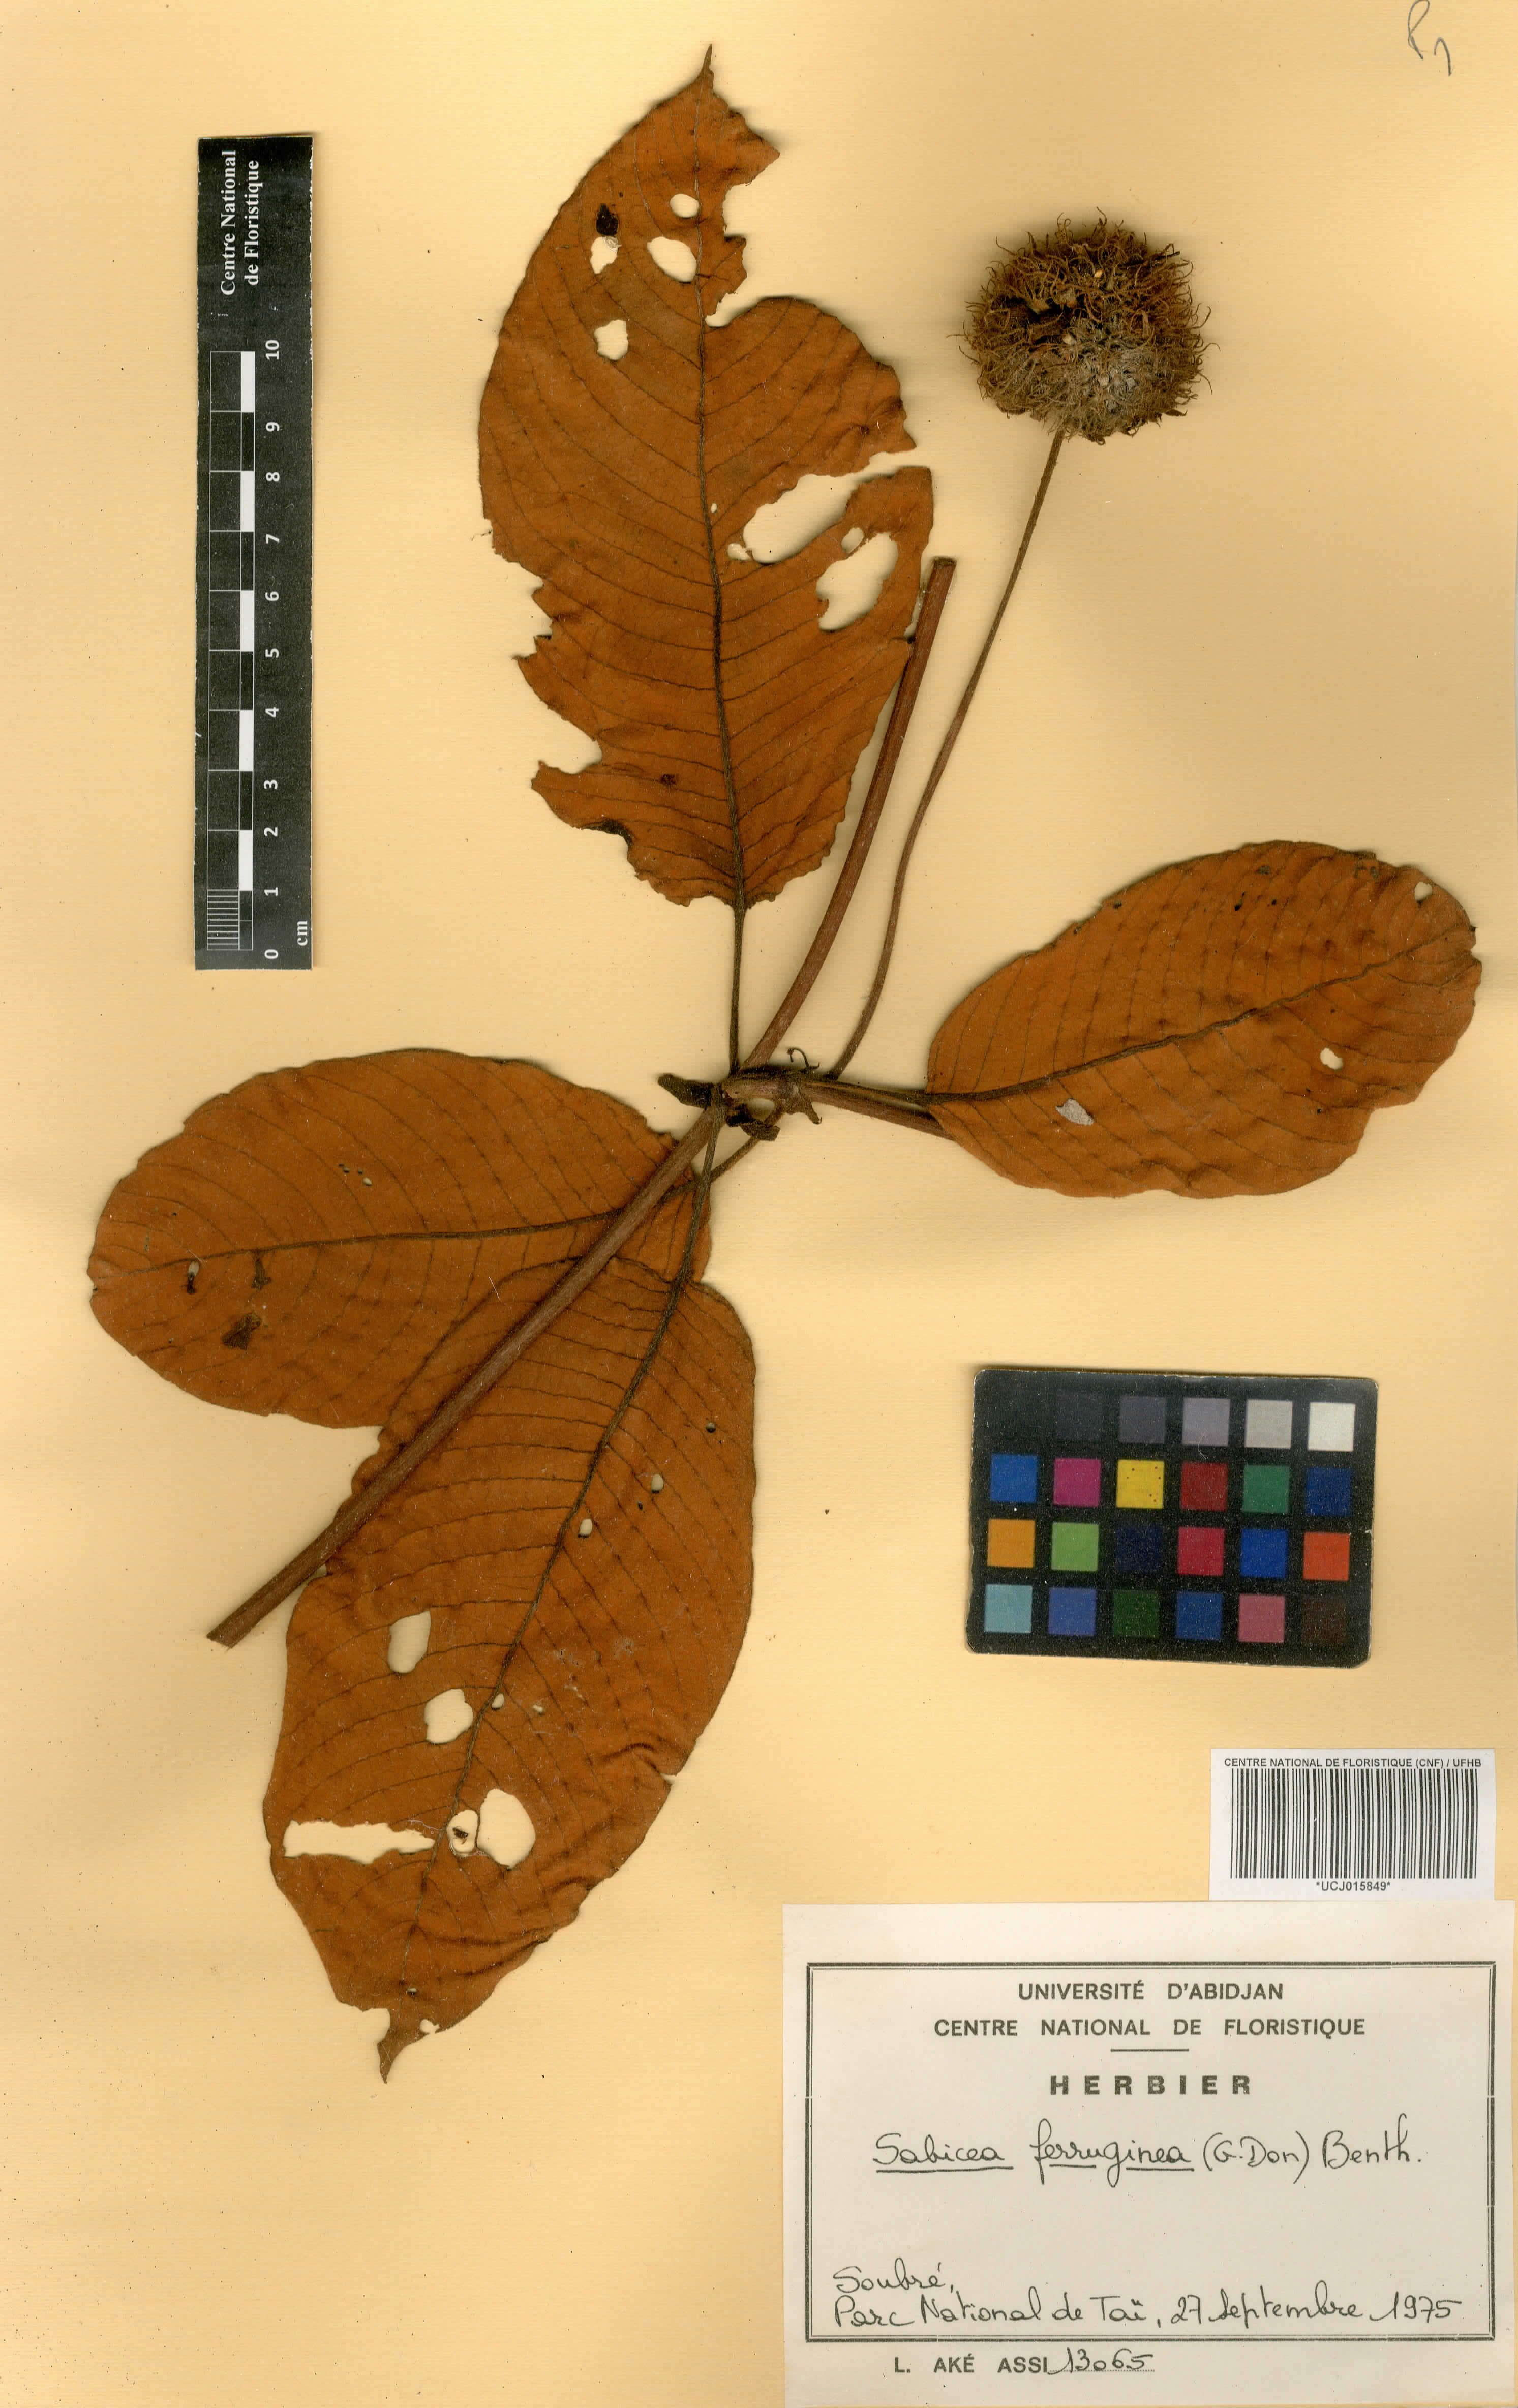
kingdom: Plantae
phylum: Tracheophyta
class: Magnoliopsida
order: Gentianales
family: Rubiaceae
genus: Sabicea
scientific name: Sabicea ferruginea
